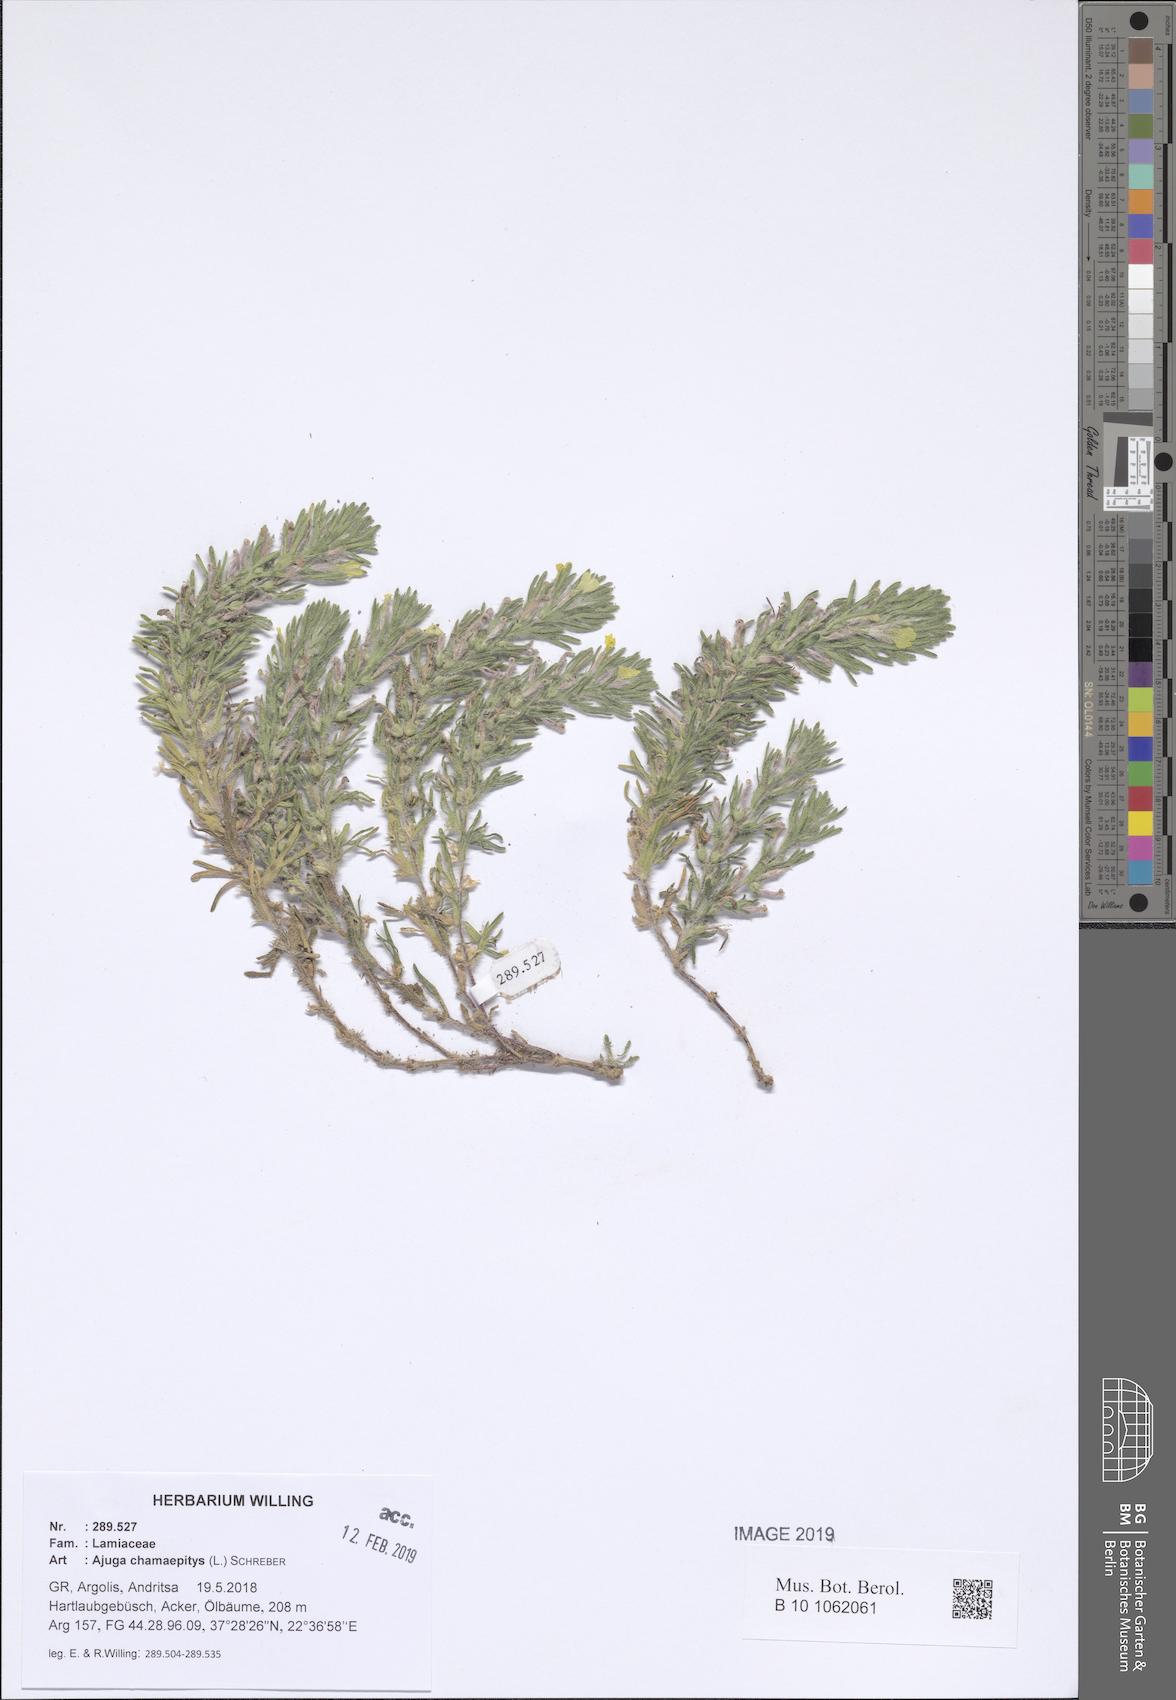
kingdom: Plantae
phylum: Tracheophyta
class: Magnoliopsida
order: Lamiales
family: Lamiaceae
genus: Ajuga
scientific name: Ajuga chamaepitys
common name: Ground-pine
